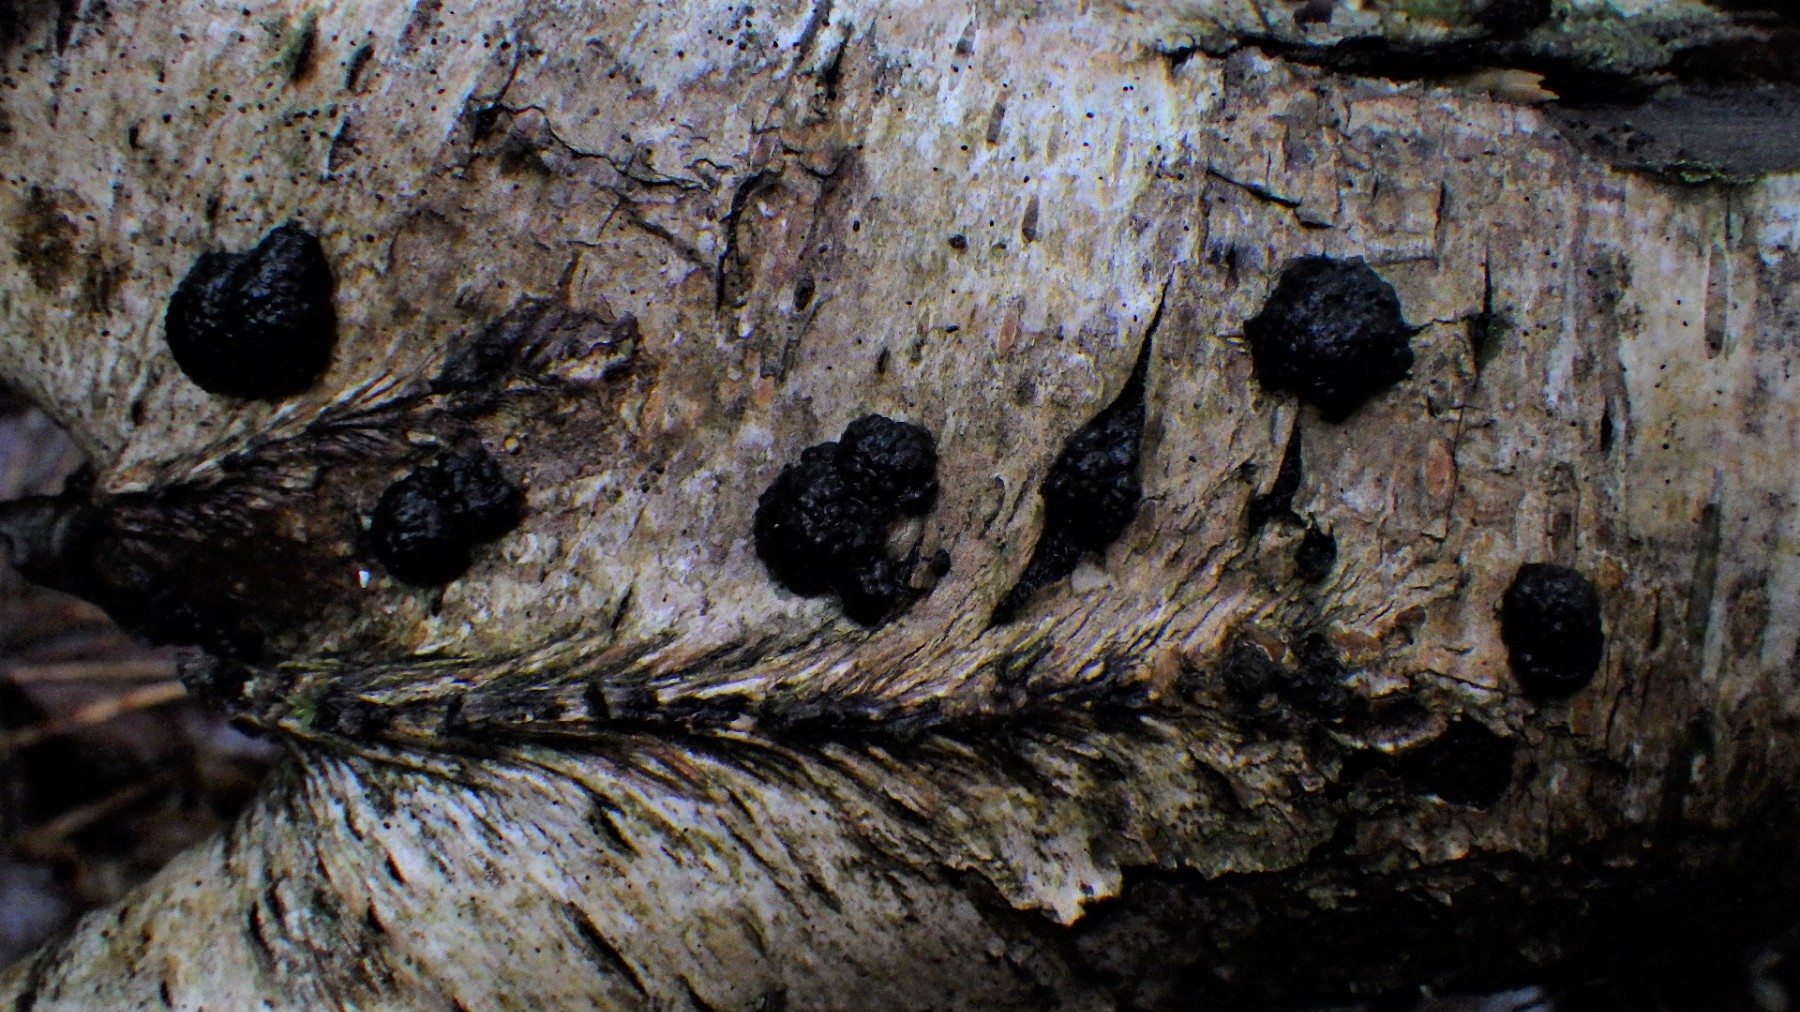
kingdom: Fungi
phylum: Ascomycota
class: Sordariomycetes
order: Xylariales
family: Hypoxylaceae
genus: Jackrogersella
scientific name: Jackrogersella multiformis
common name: foranderlig kulbær
